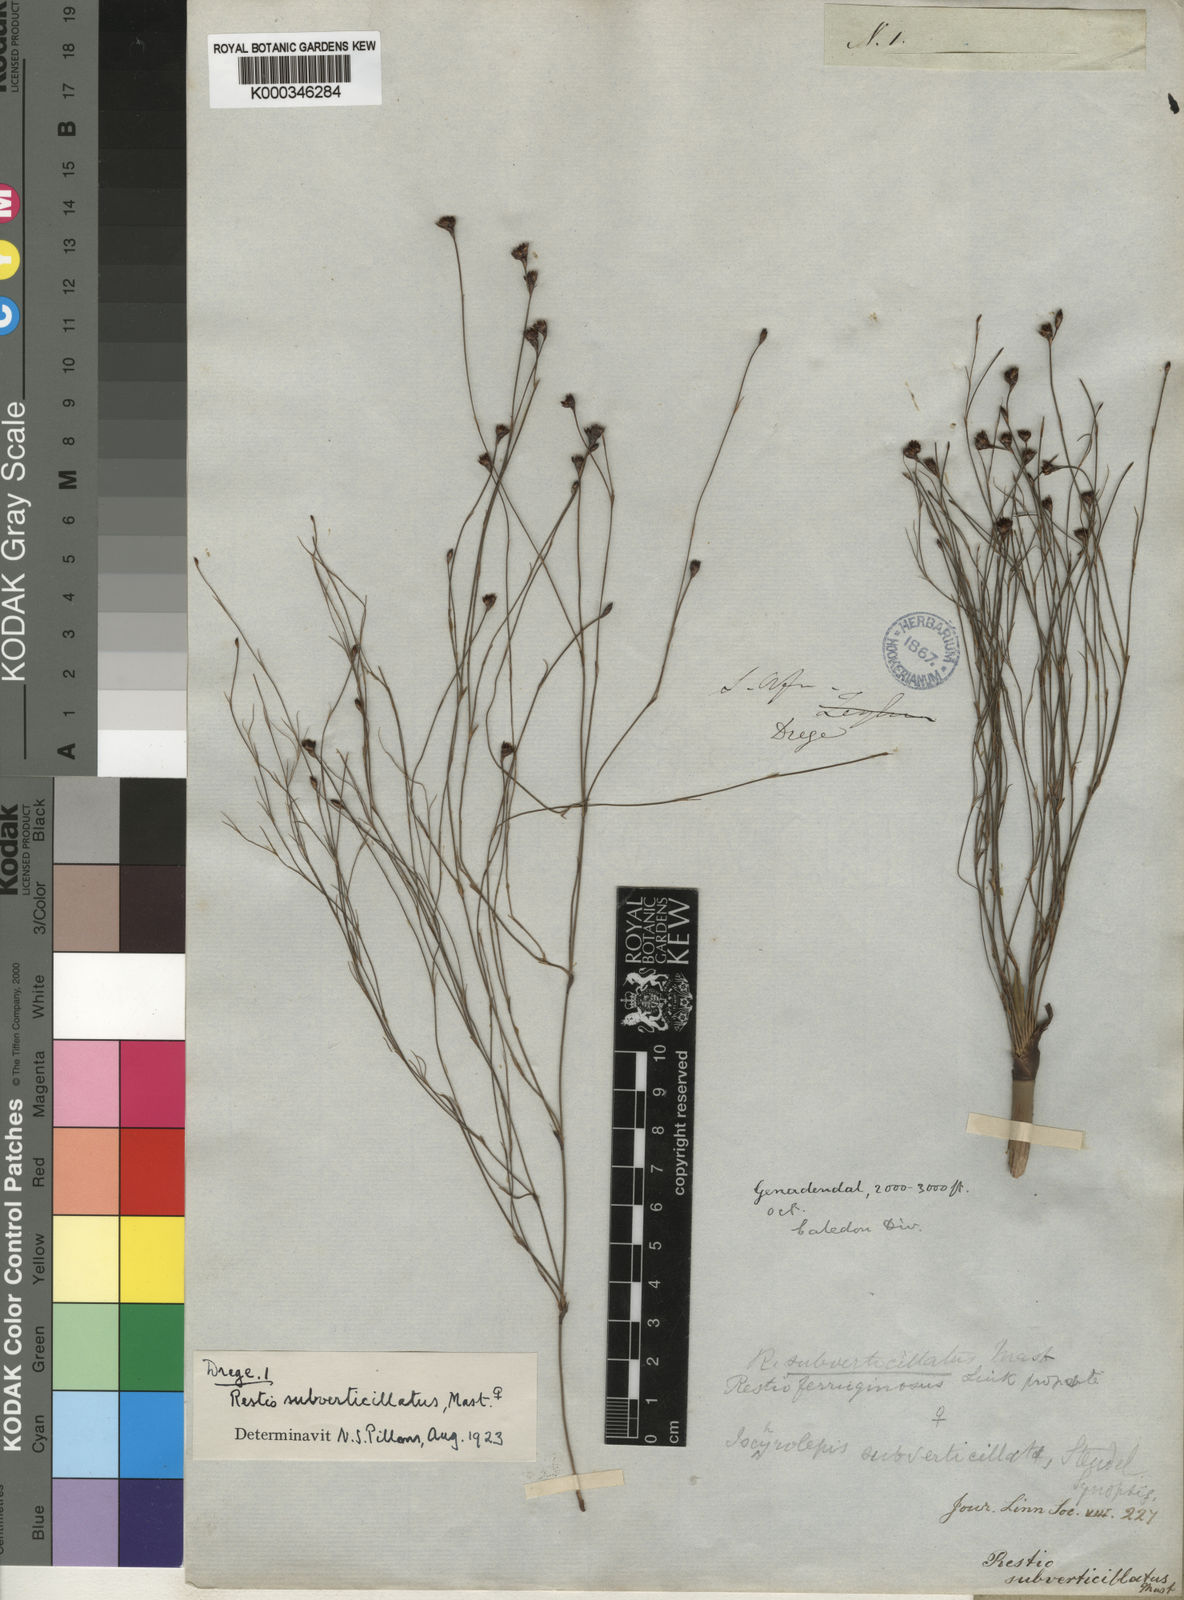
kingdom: Plantae
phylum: Tracheophyta
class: Liliopsida
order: Poales
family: Restionaceae
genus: Restio
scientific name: Restio subverticillatus
